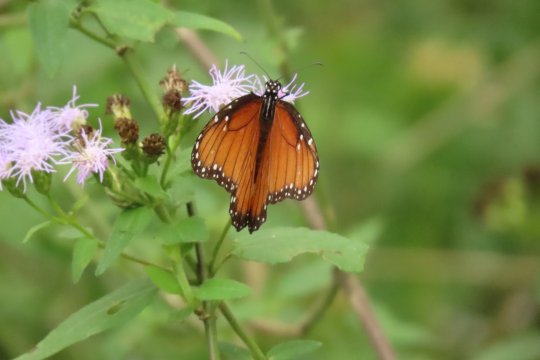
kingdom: Animalia
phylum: Arthropoda
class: Insecta
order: Lepidoptera
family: Nymphalidae
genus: Danaus
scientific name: Danaus eresimus
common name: Soldier
